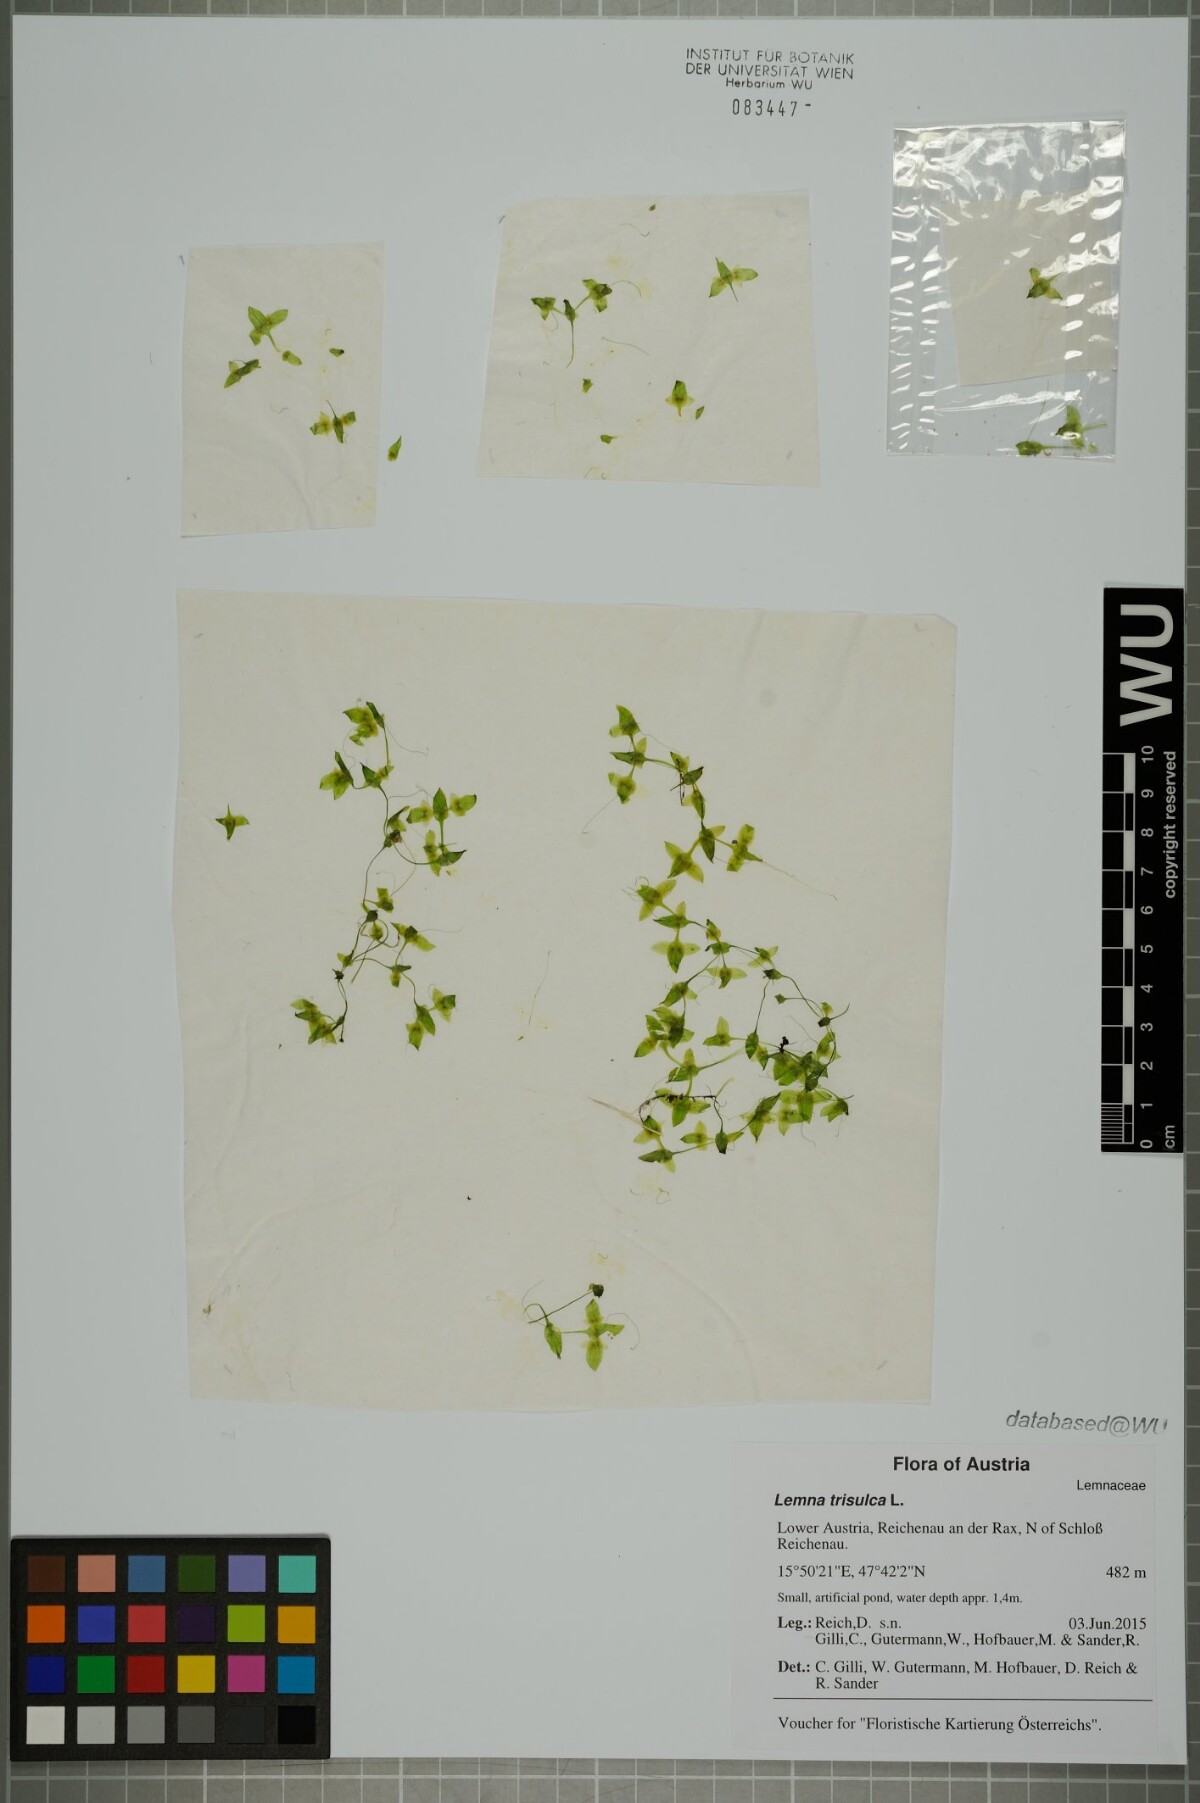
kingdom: Plantae
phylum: Tracheophyta
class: Liliopsida
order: Alismatales
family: Araceae
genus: Lemna
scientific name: Lemna trisulca
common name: Ivy-leaved duckweed
